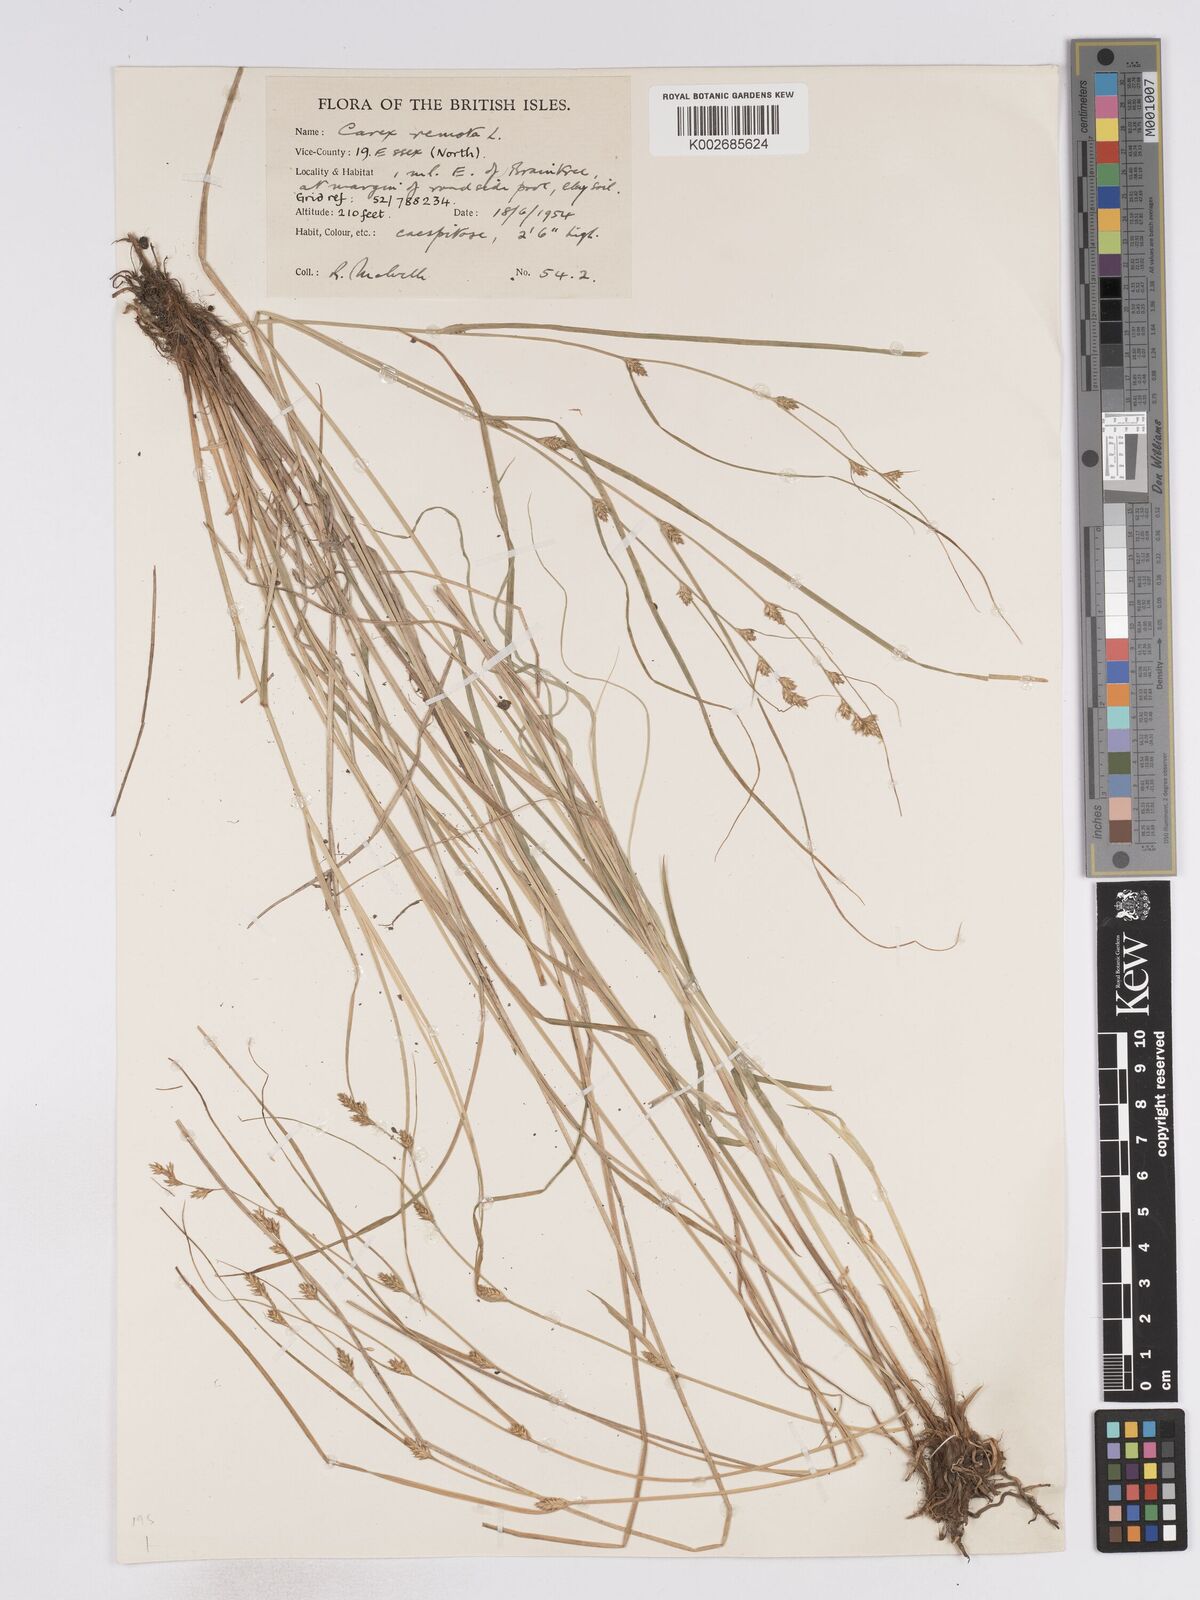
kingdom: Plantae
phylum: Tracheophyta
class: Liliopsida
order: Poales
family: Cyperaceae
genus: Carex
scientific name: Carex remota
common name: Remote sedge
